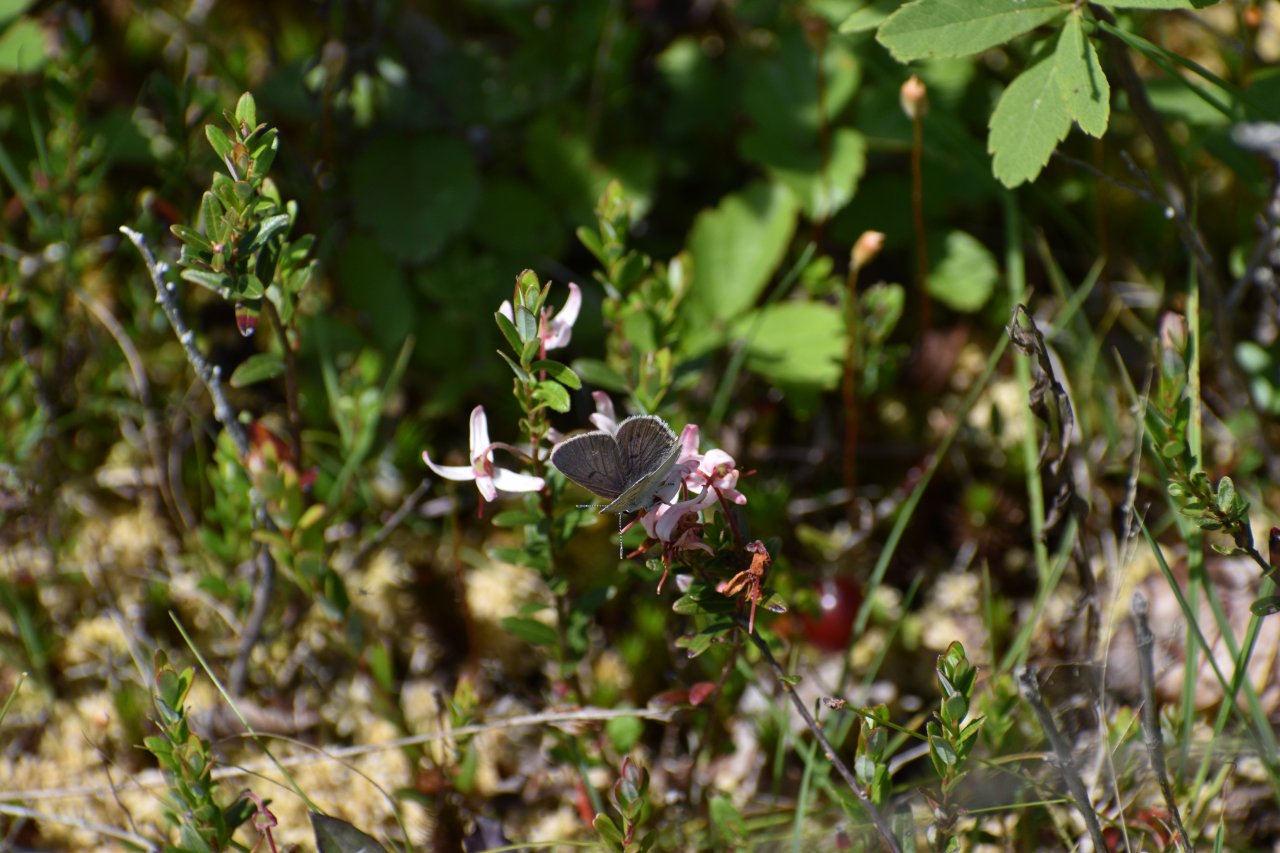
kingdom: Animalia
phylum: Arthropoda
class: Insecta
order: Lepidoptera
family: Sesiidae
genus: Sesia
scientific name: Sesia Lycaena epixanthe
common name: Bog Copper
